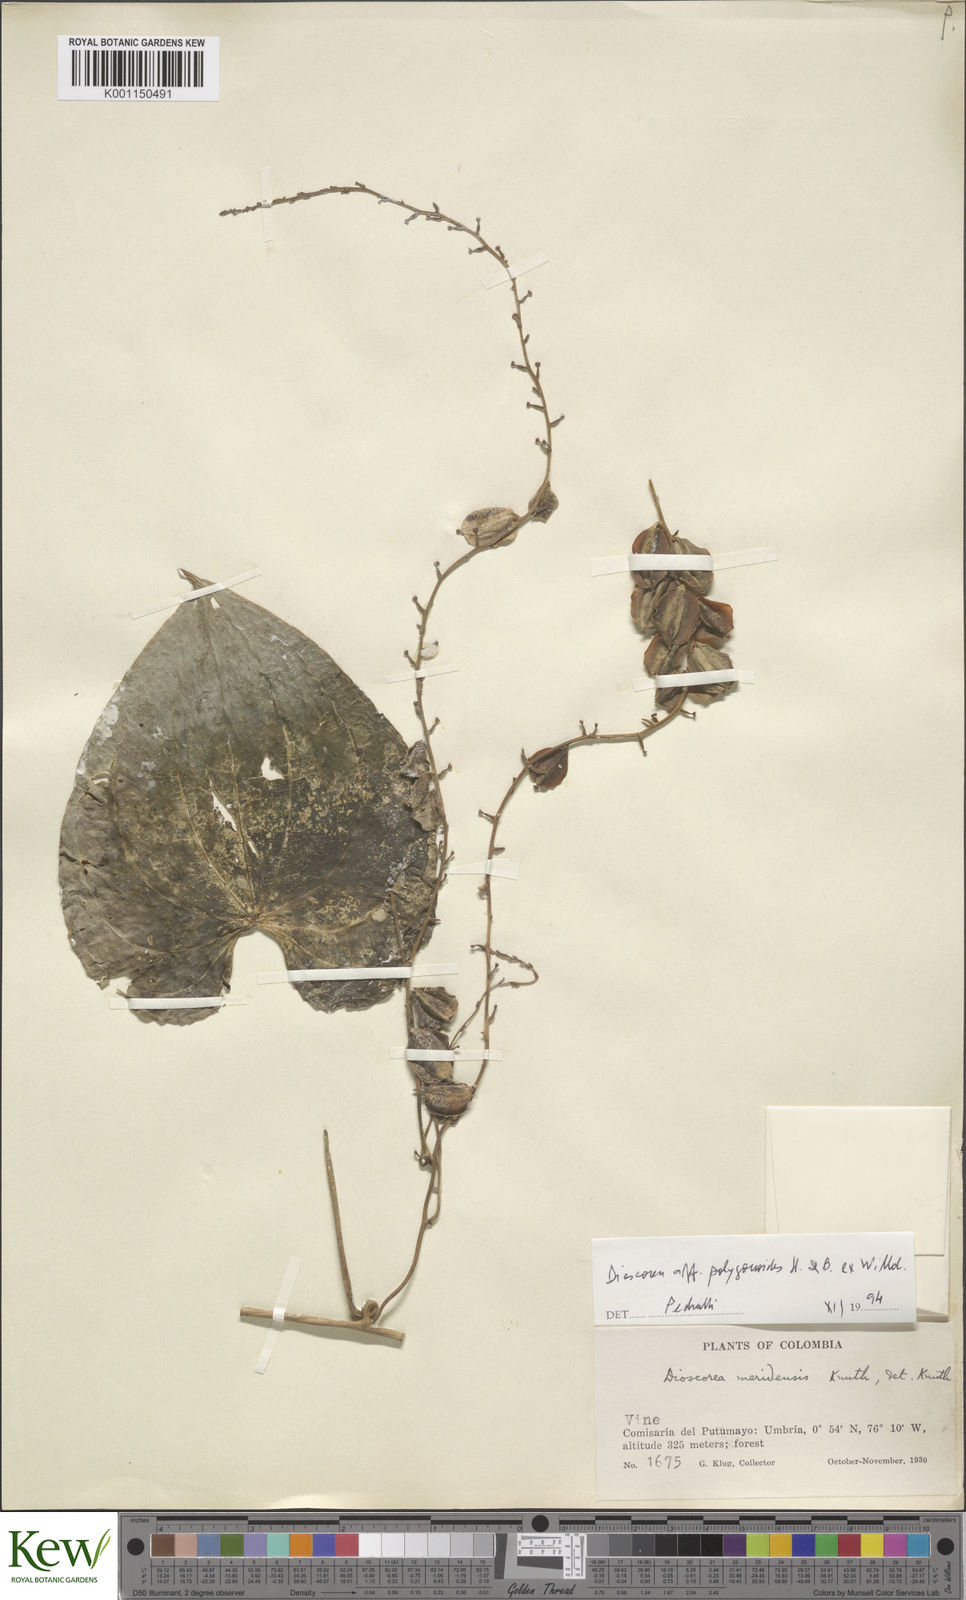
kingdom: Plantae
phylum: Tracheophyta
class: Liliopsida
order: Dioscoreales
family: Dioscoreaceae
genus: Dioscorea
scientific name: Dioscorea meridensis
